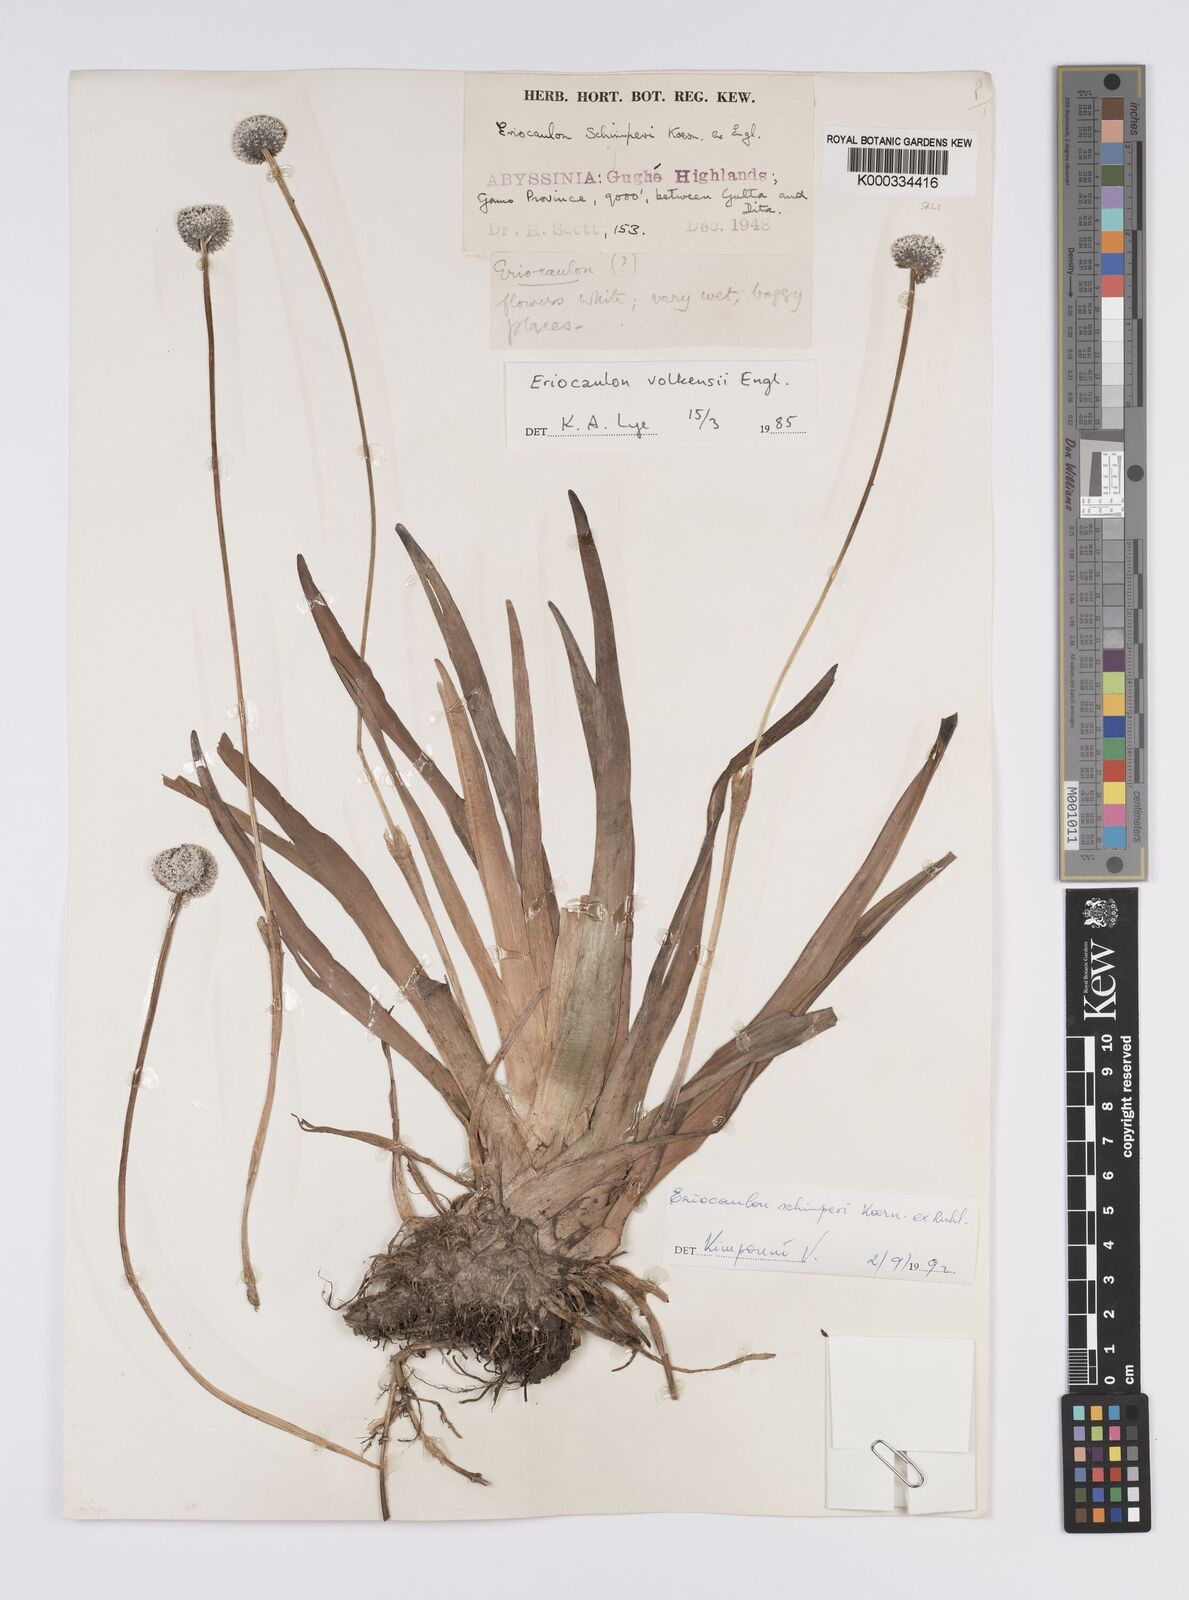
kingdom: Plantae
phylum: Tracheophyta
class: Liliopsida
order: Poales
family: Eriocaulaceae
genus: Eriocaulon
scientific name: Eriocaulon
